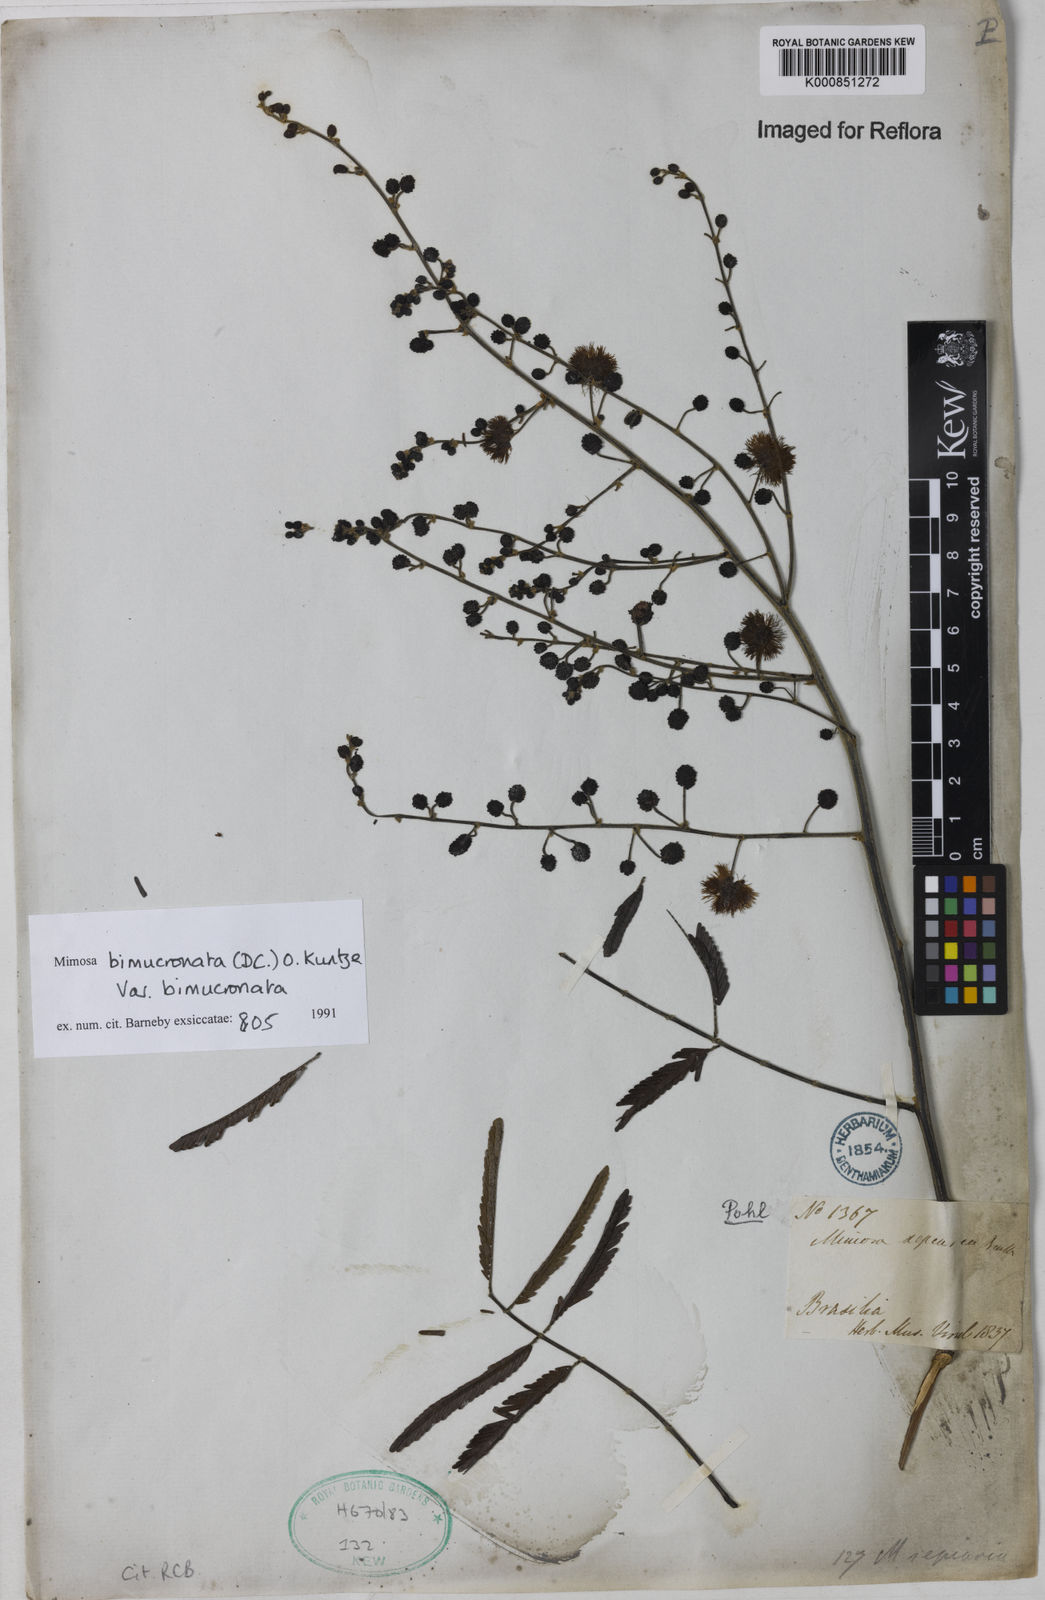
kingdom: Plantae
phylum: Tracheophyta
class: Magnoliopsida
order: Fabales
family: Fabaceae
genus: Mimosa
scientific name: Mimosa bimucronata
